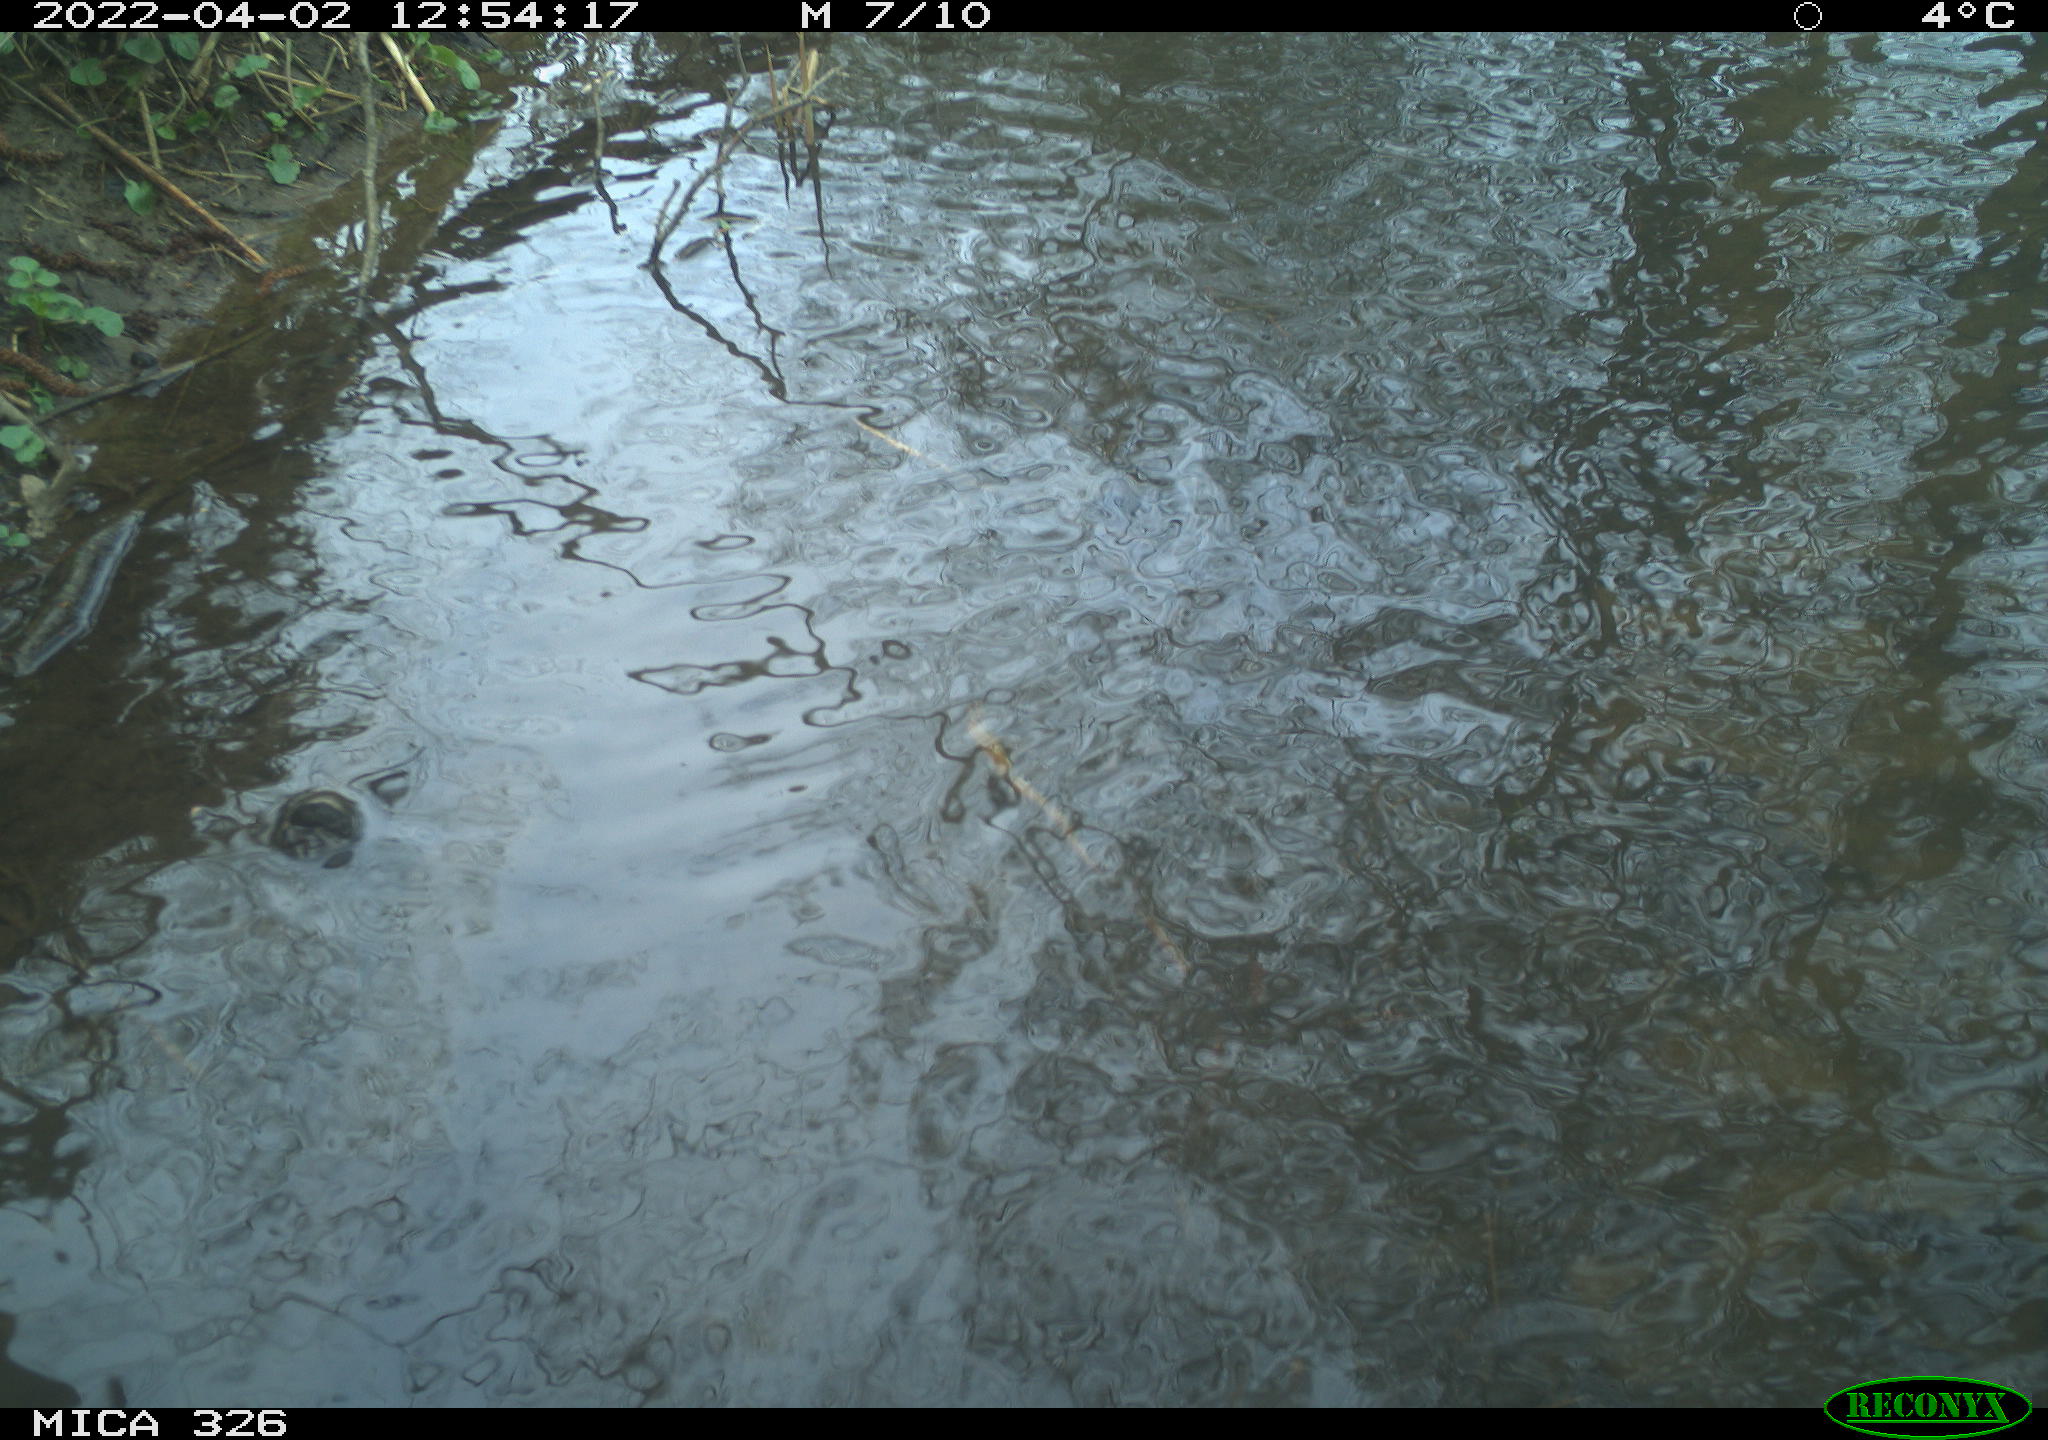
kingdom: Animalia
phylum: Chordata
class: Mammalia
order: Rodentia
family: Cricetidae
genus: Ondatra
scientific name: Ondatra zibethicus
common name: Muskrat
